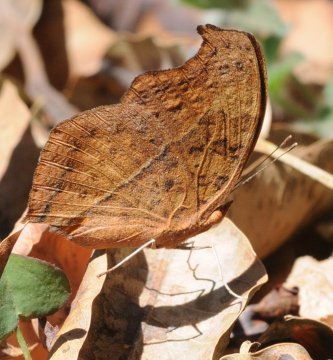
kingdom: Animalia
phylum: Arthropoda
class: Insecta
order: Lepidoptera
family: Nymphalidae
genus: Precis
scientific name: Precis
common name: Commodores
